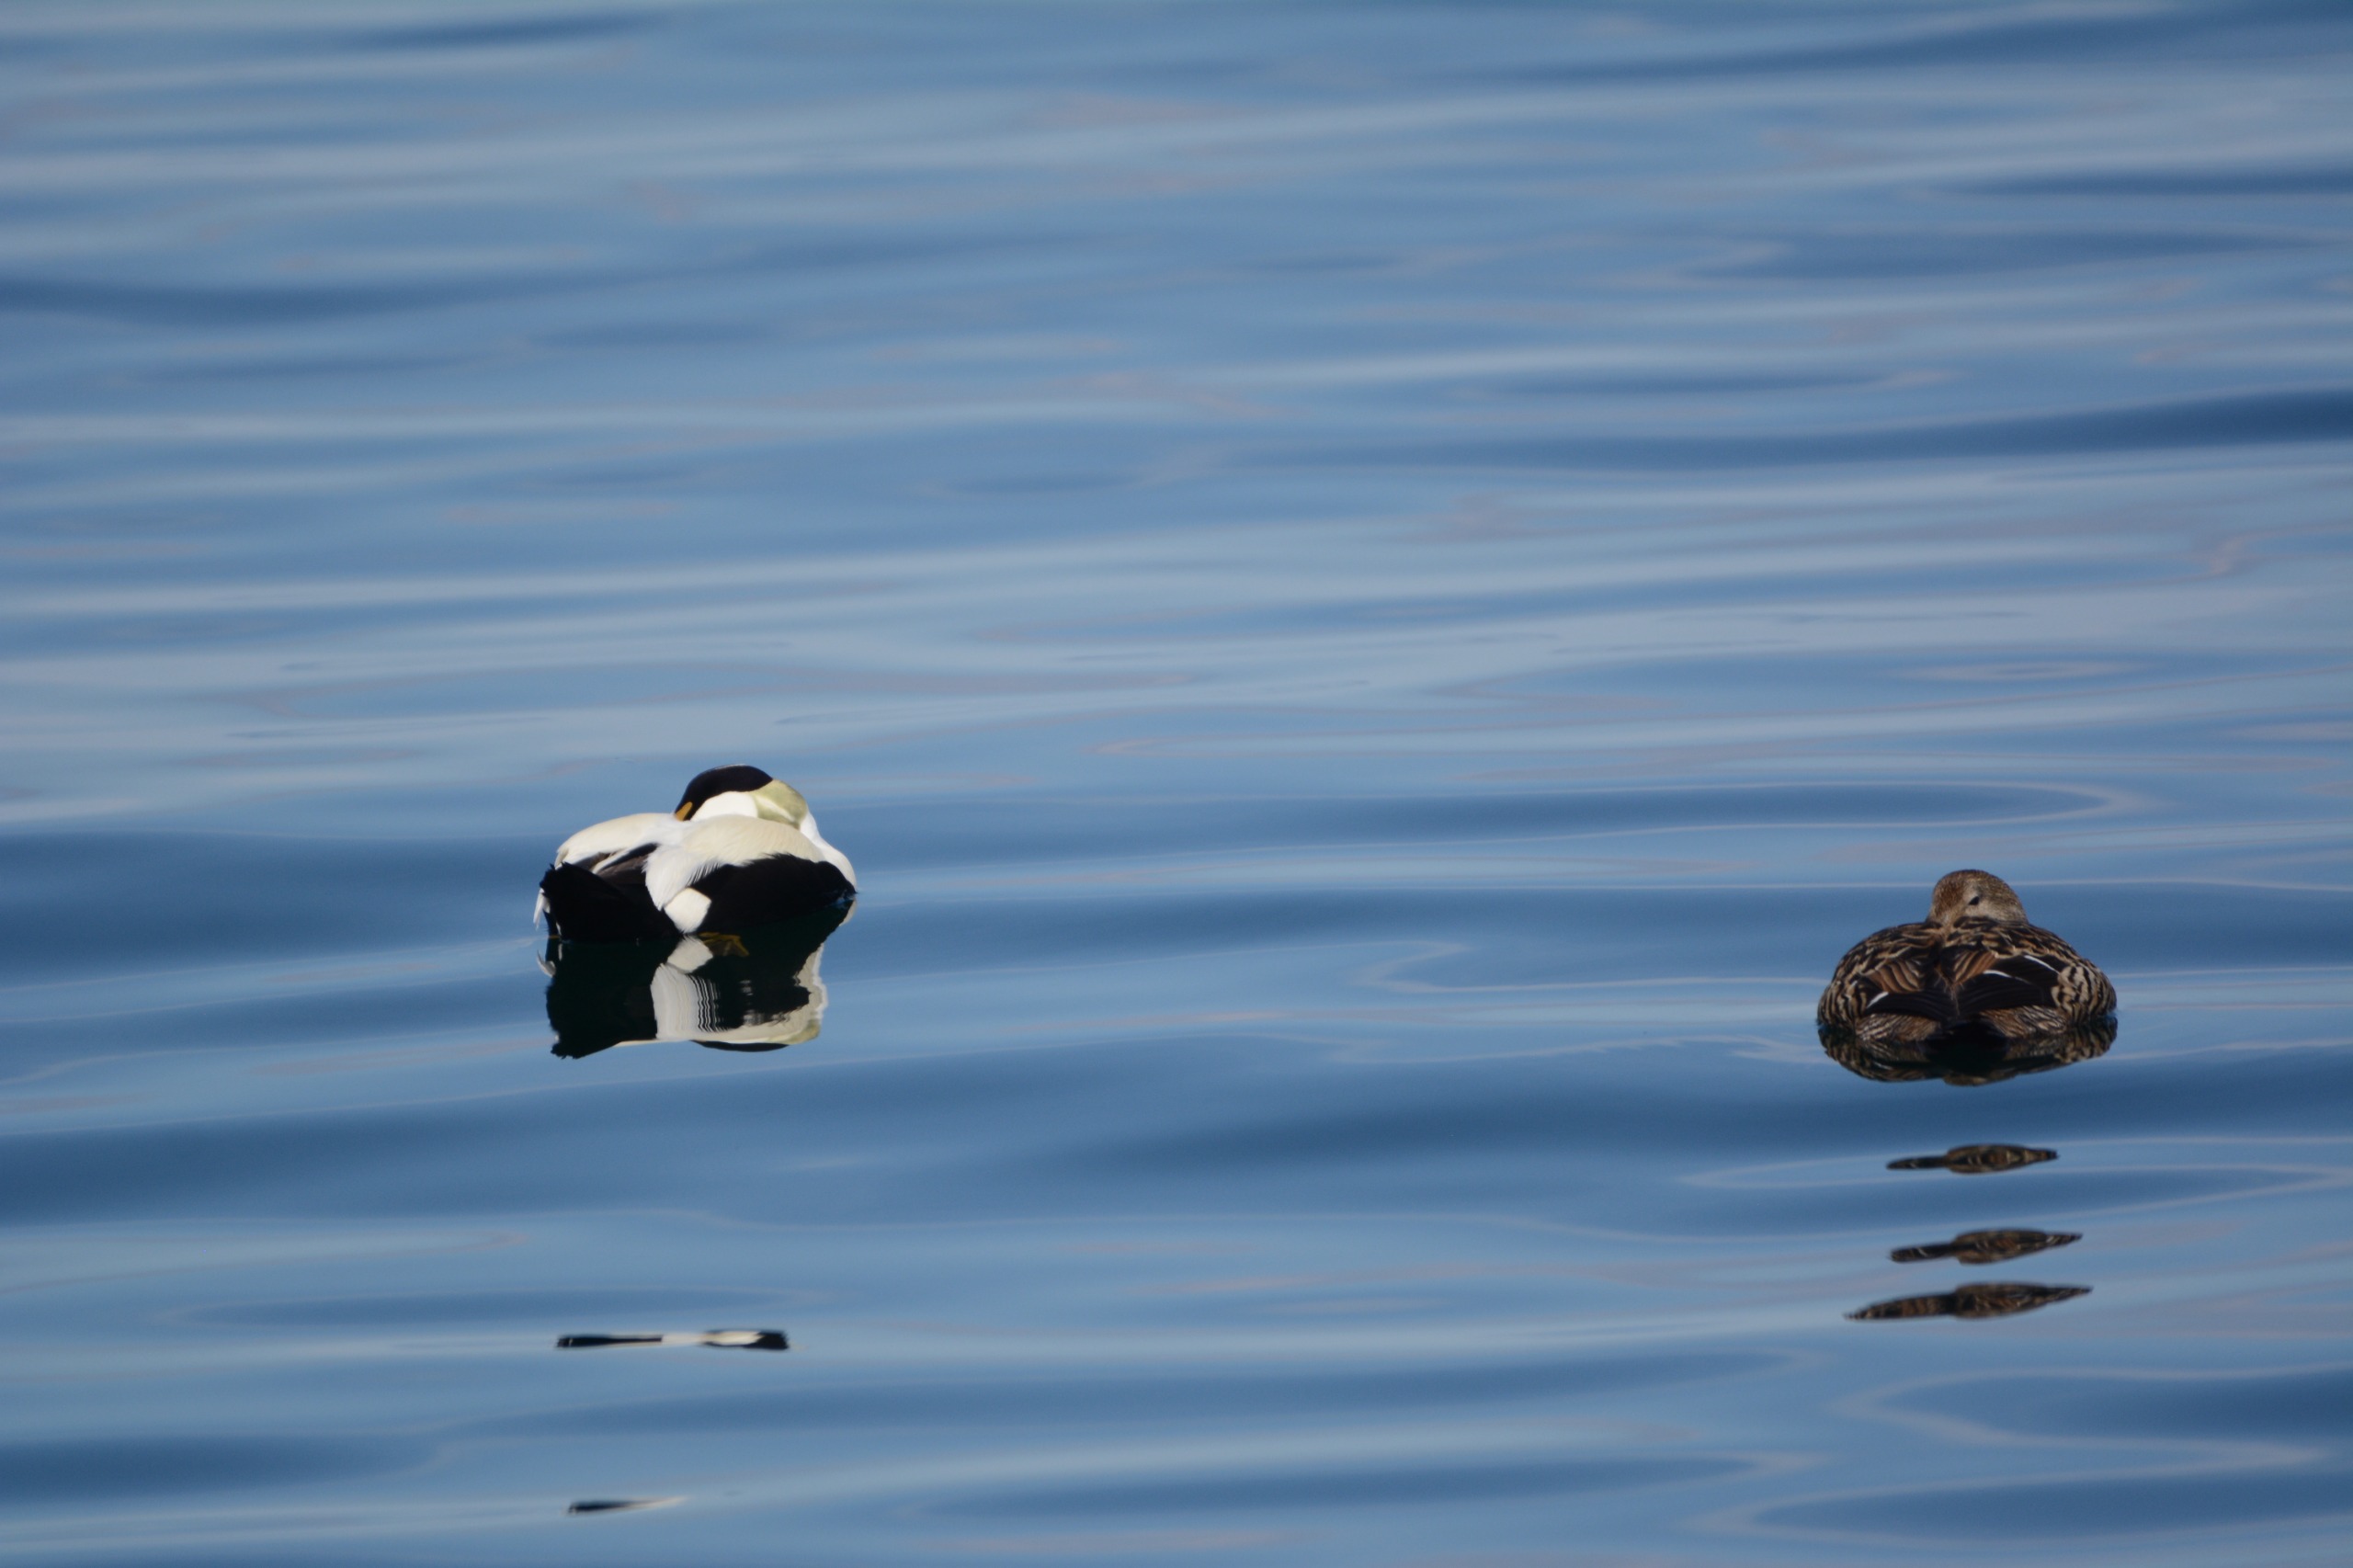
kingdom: Animalia
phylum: Chordata
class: Aves
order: Anseriformes
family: Anatidae
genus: Somateria
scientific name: Somateria mollissima
